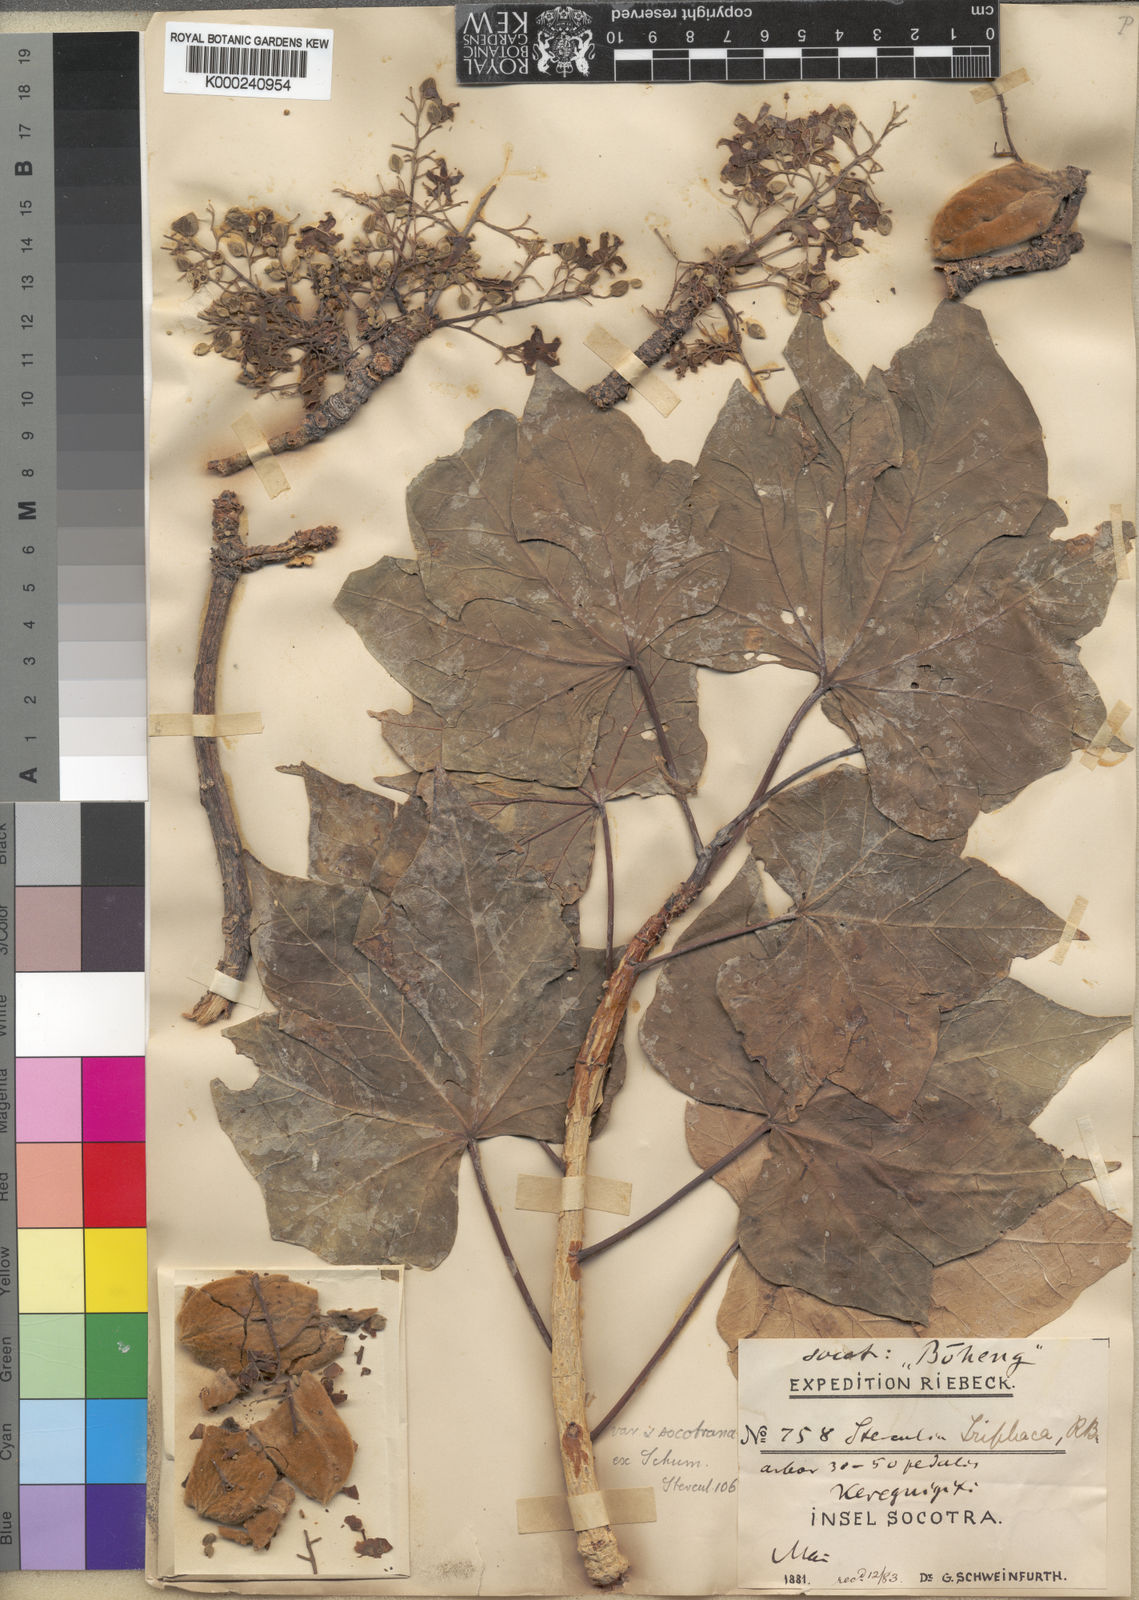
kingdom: Plantae
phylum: Tracheophyta
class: Magnoliopsida
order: Malvales
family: Malvaceae
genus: Sterculia
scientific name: Sterculia africana
